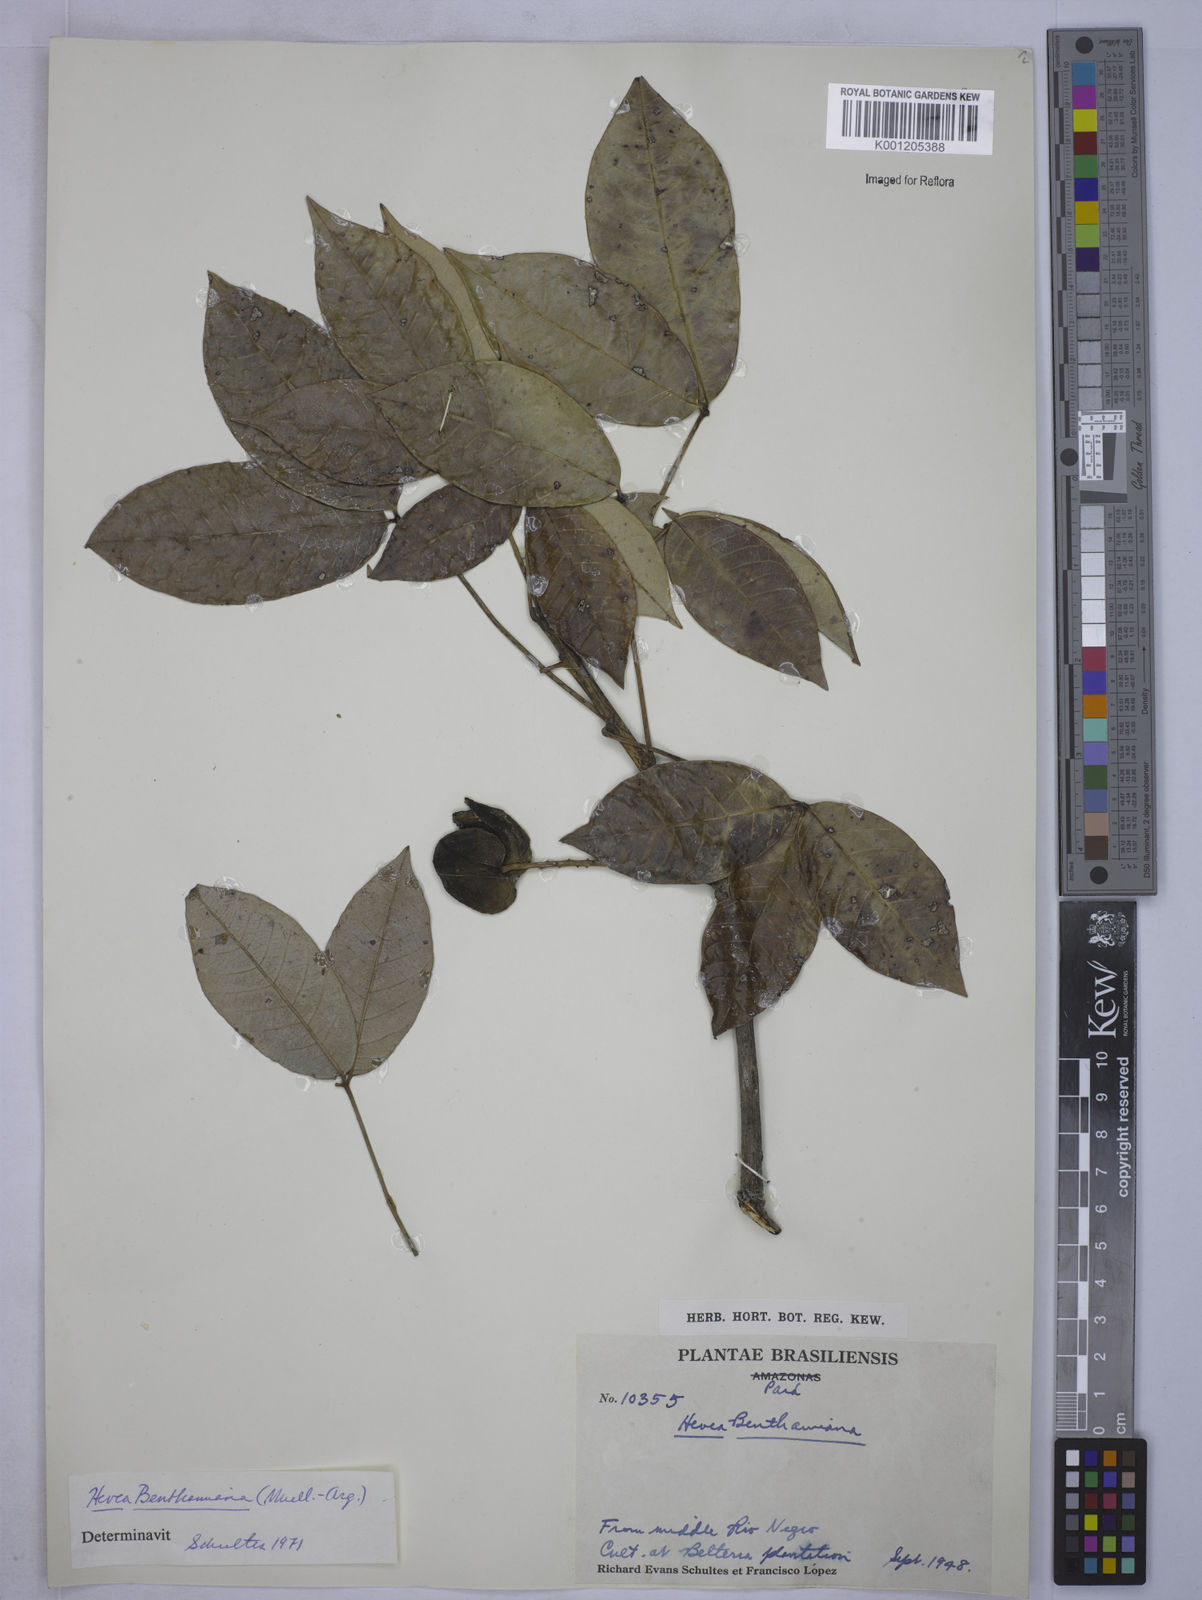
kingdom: Plantae
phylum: Tracheophyta
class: Magnoliopsida
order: Malpighiales
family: Euphorbiaceae
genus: Hevea
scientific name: Hevea
